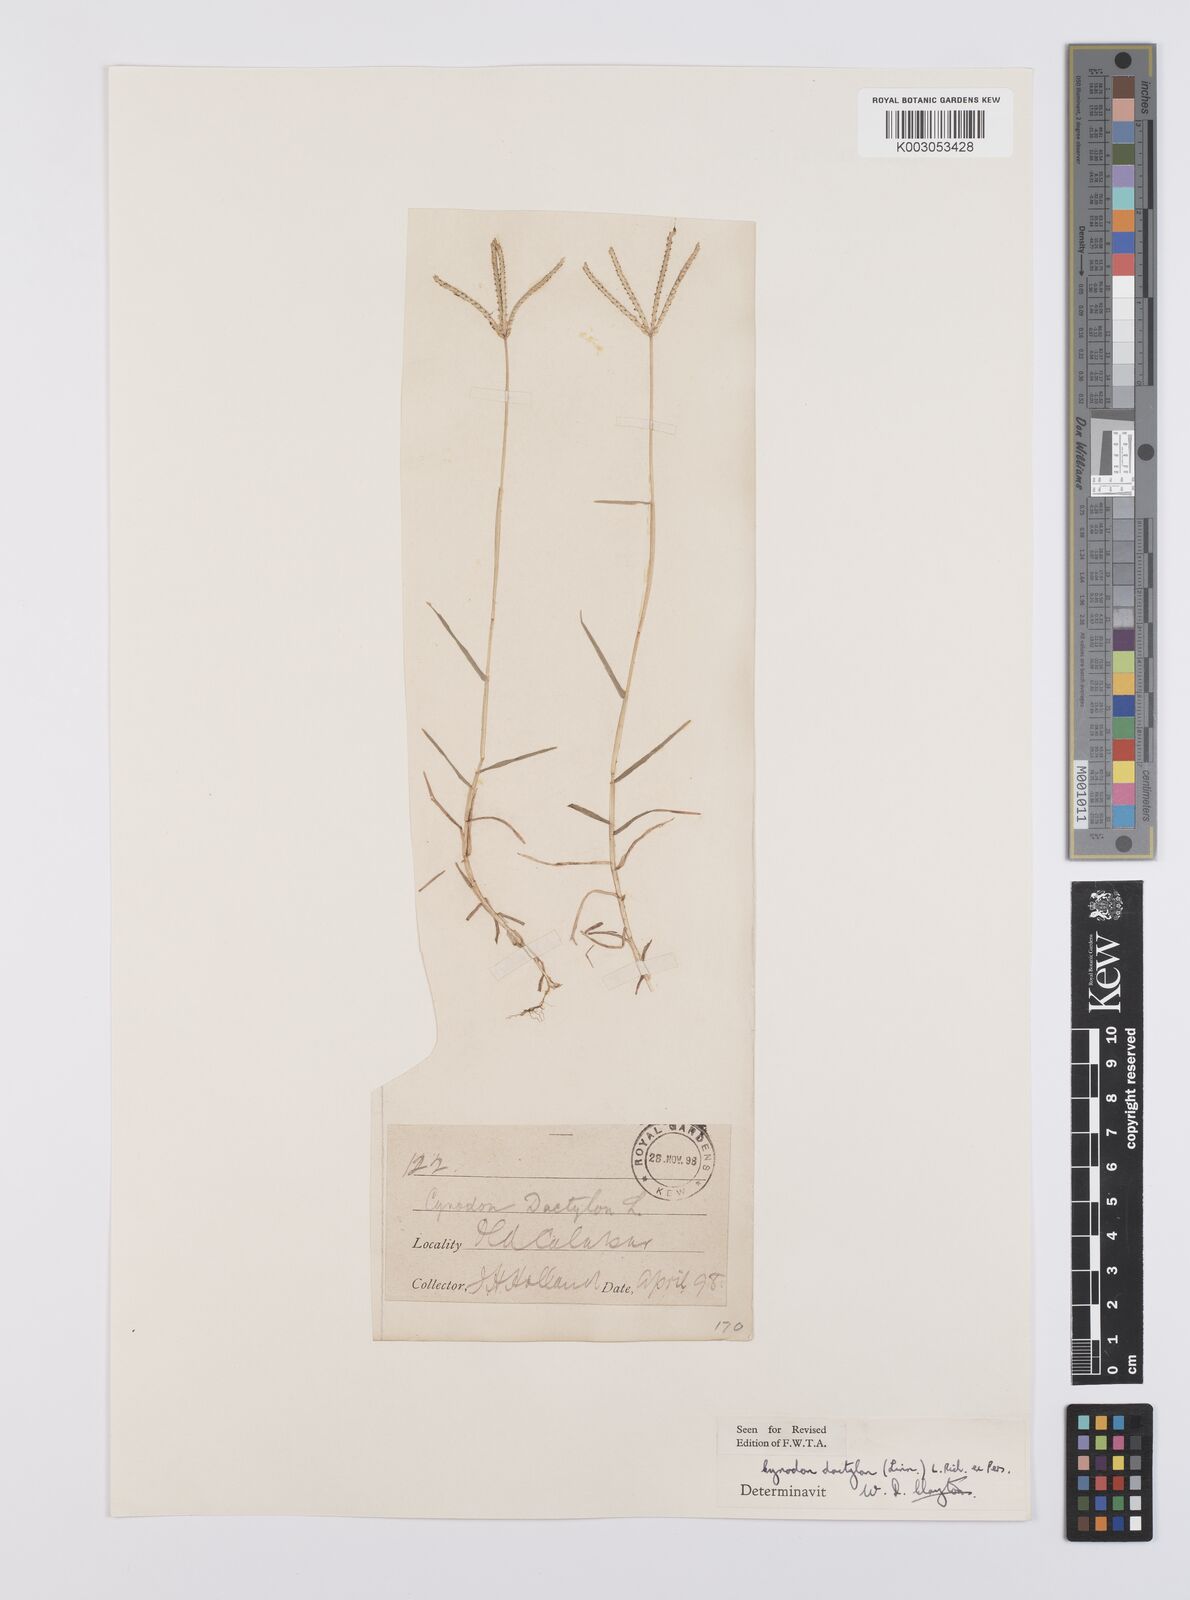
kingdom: Plantae
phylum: Tracheophyta
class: Liliopsida
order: Poales
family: Poaceae
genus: Cynodon
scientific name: Cynodon dactylon
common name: Bermuda grass
